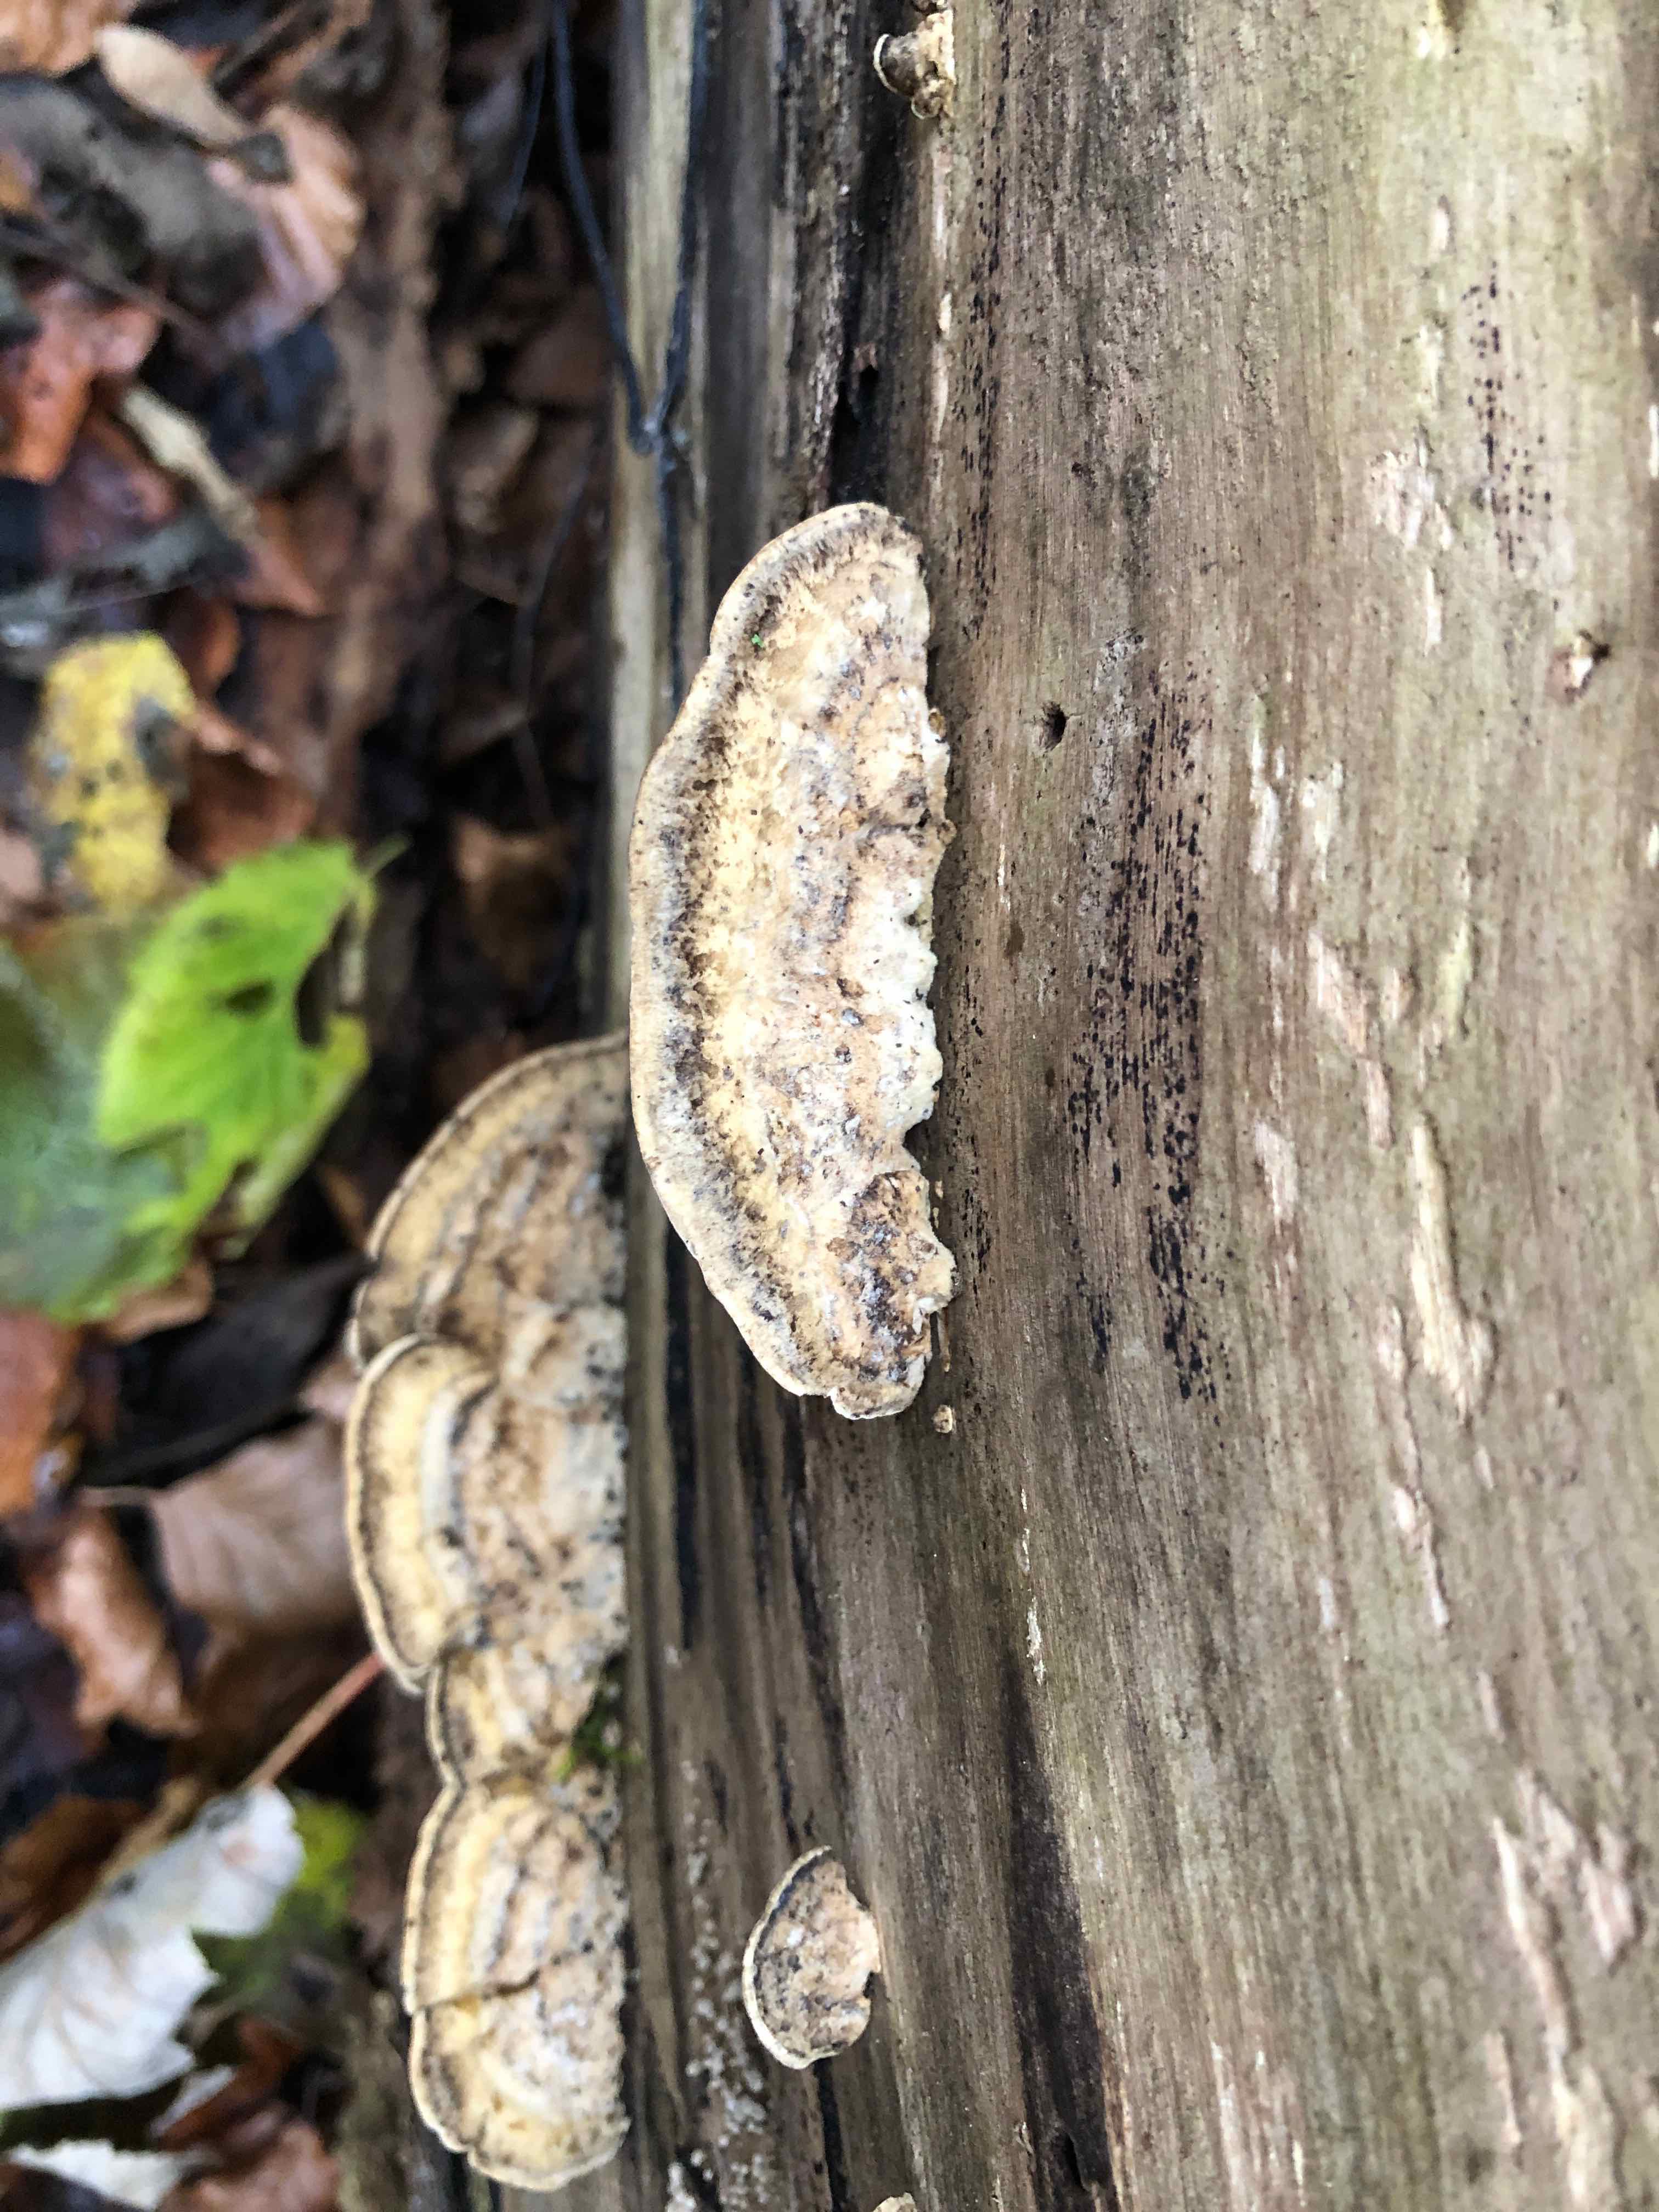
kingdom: Fungi
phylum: Basidiomycota
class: Agaricomycetes
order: Polyporales
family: Phanerochaetaceae
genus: Bjerkandera
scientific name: Bjerkandera adusta
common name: sveden sodporesvamp
